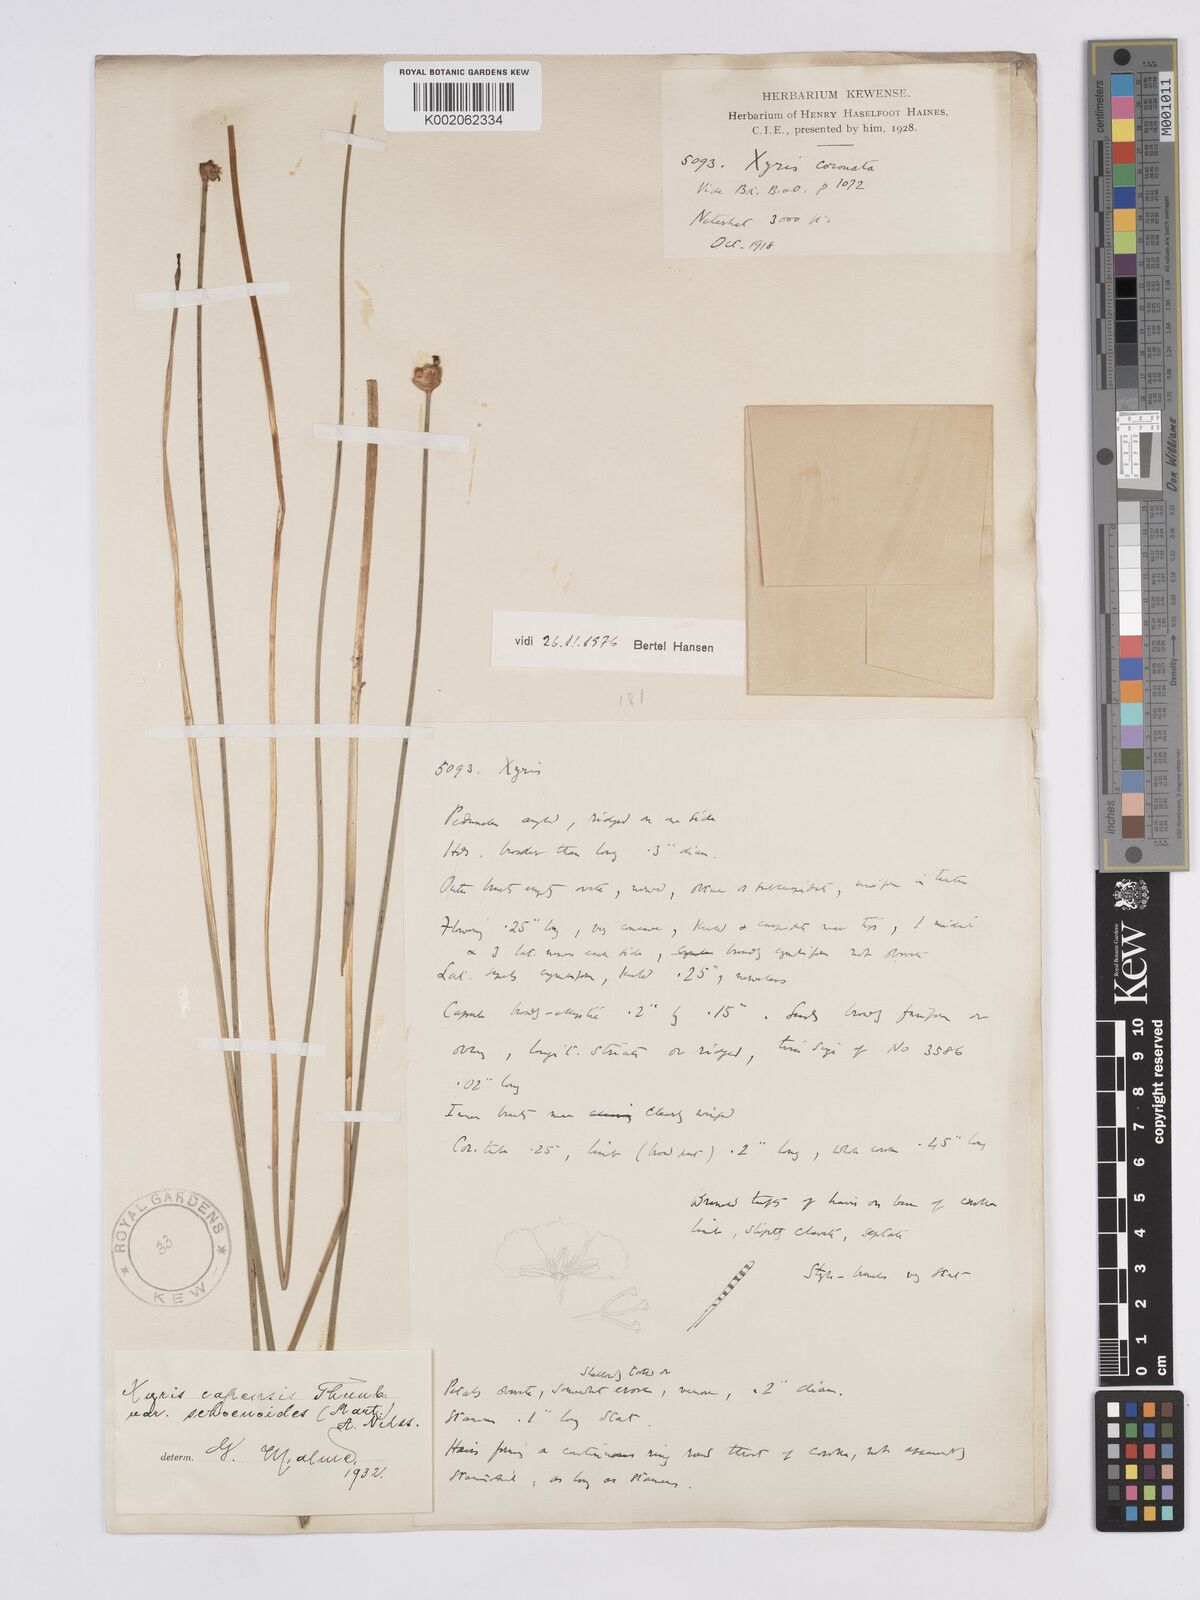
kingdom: Plantae
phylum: Tracheophyta
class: Liliopsida
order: Poales
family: Xyridaceae
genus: Xyris
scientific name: Xyris capensis
